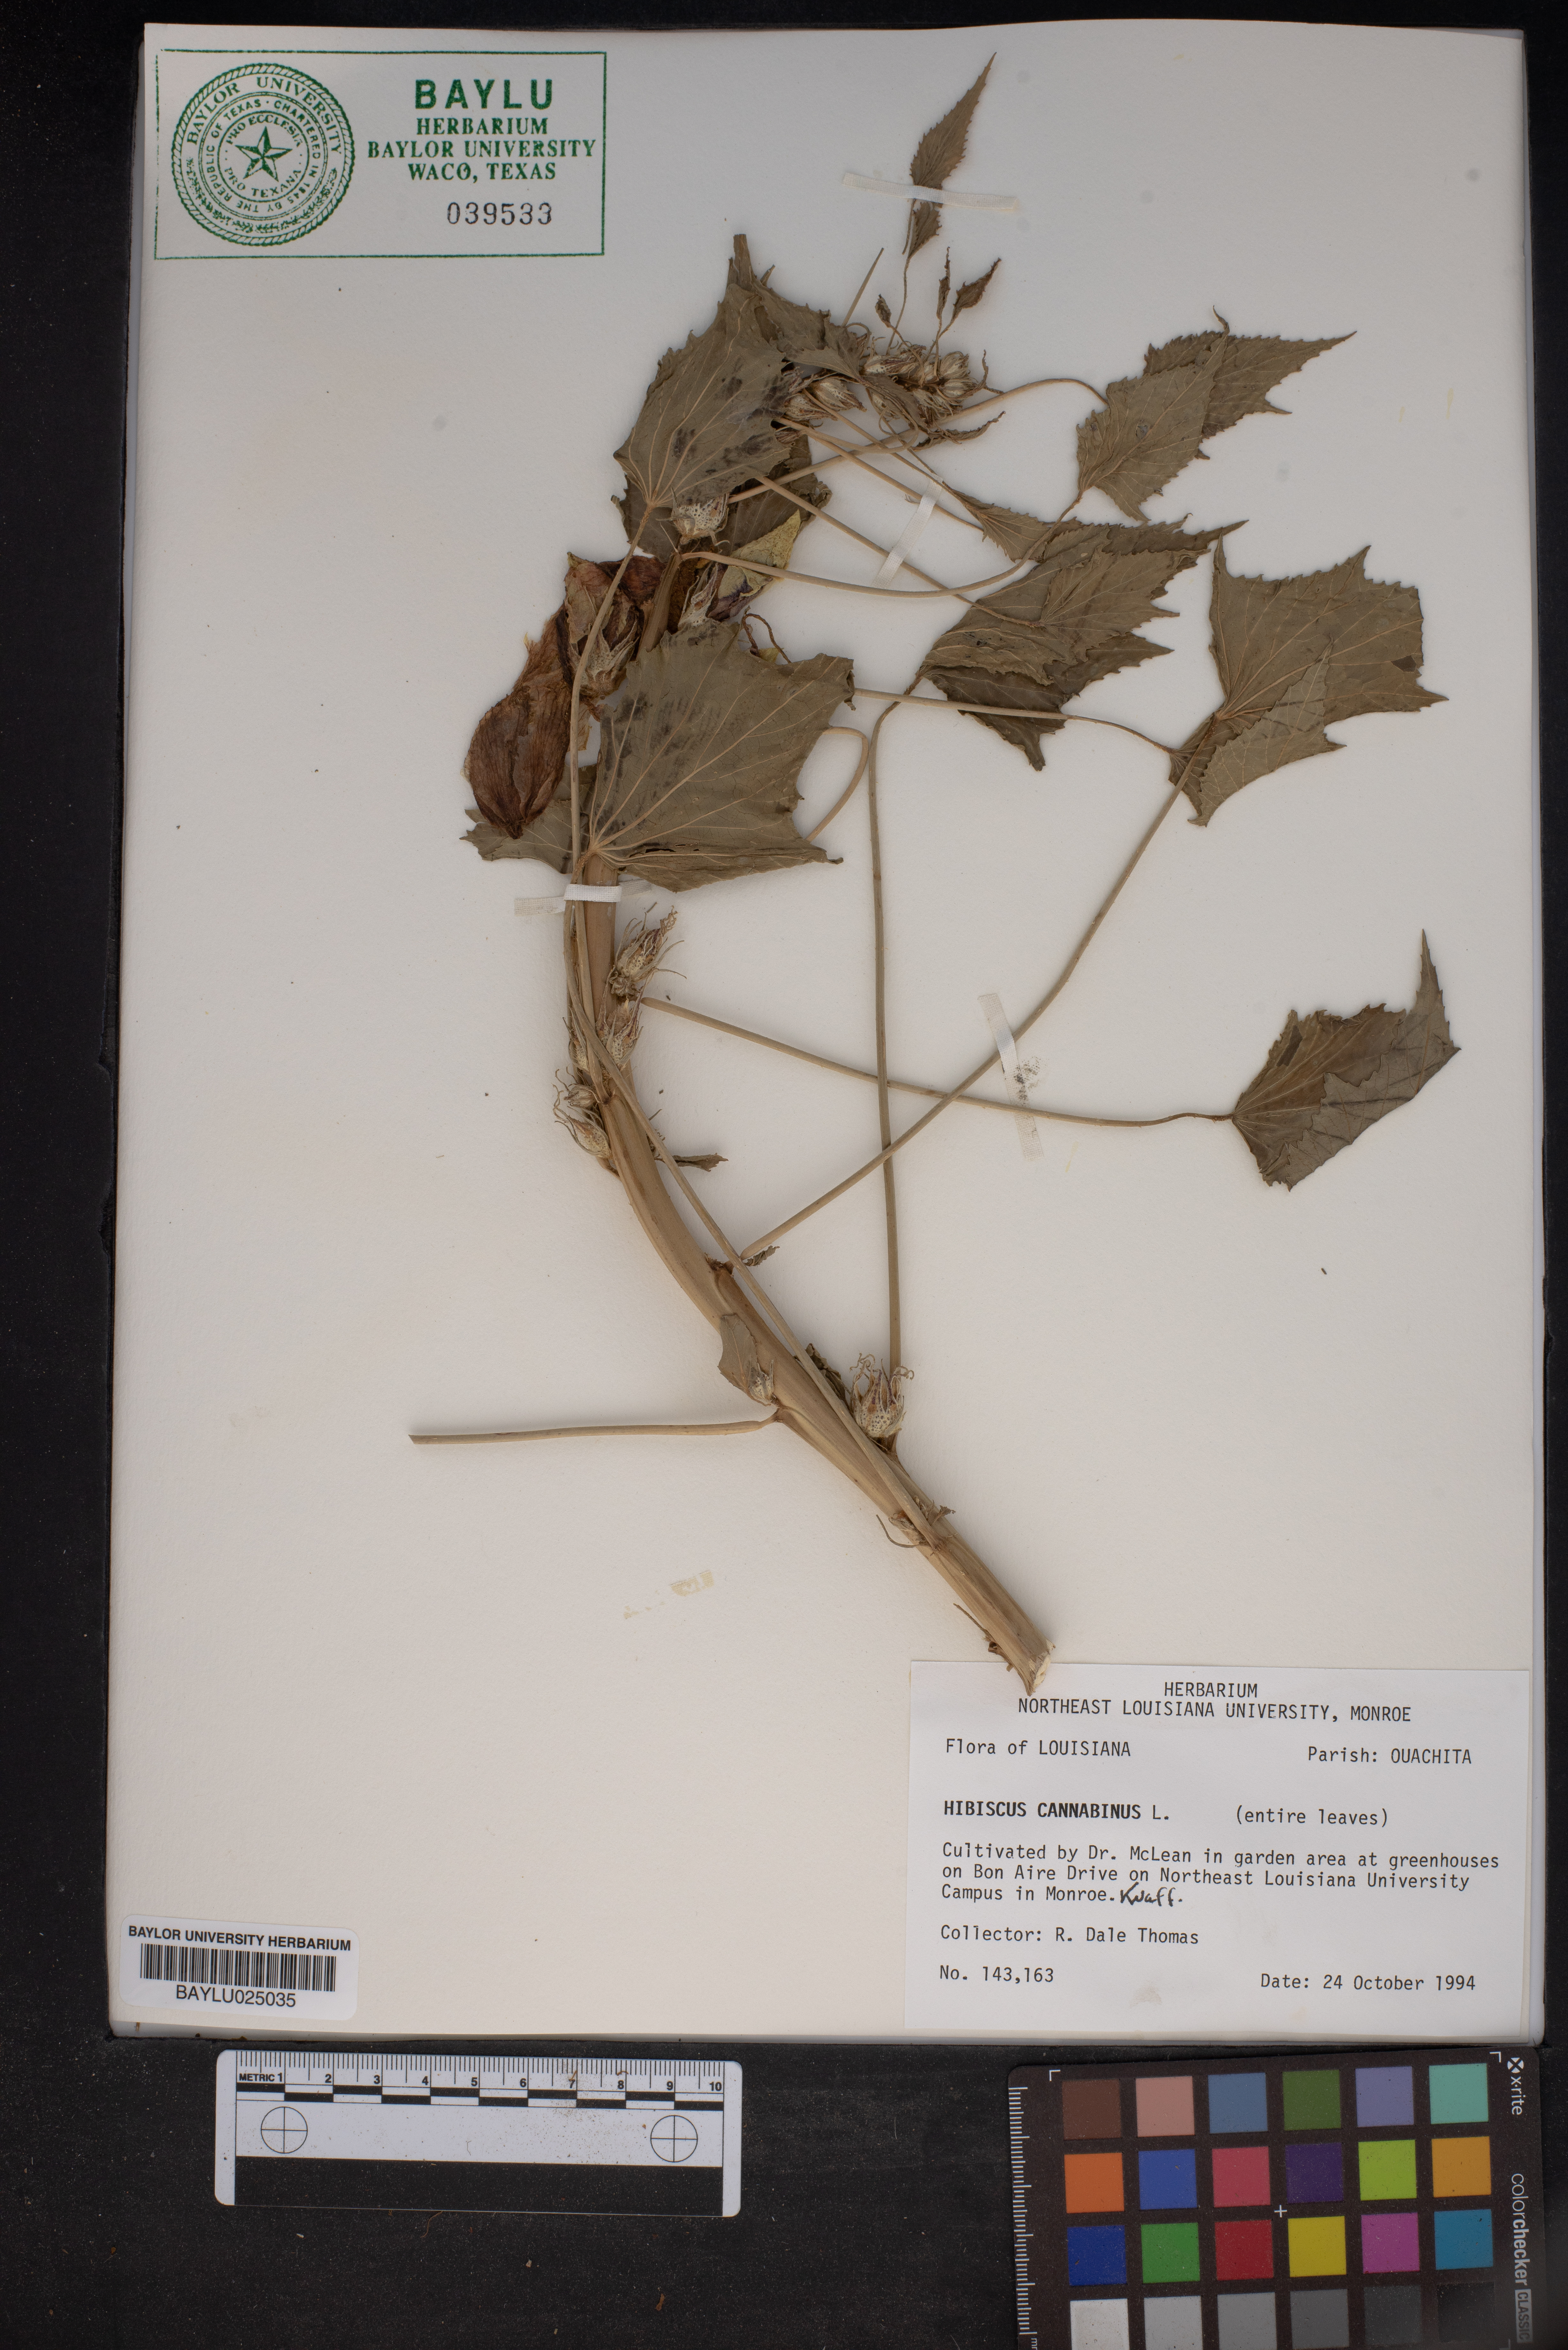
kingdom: Plantae
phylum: Tracheophyta
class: Magnoliopsida
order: Malvales
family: Malvaceae
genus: Hibiscus
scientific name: Hibiscus cannabinus
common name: Brown indianhemp
